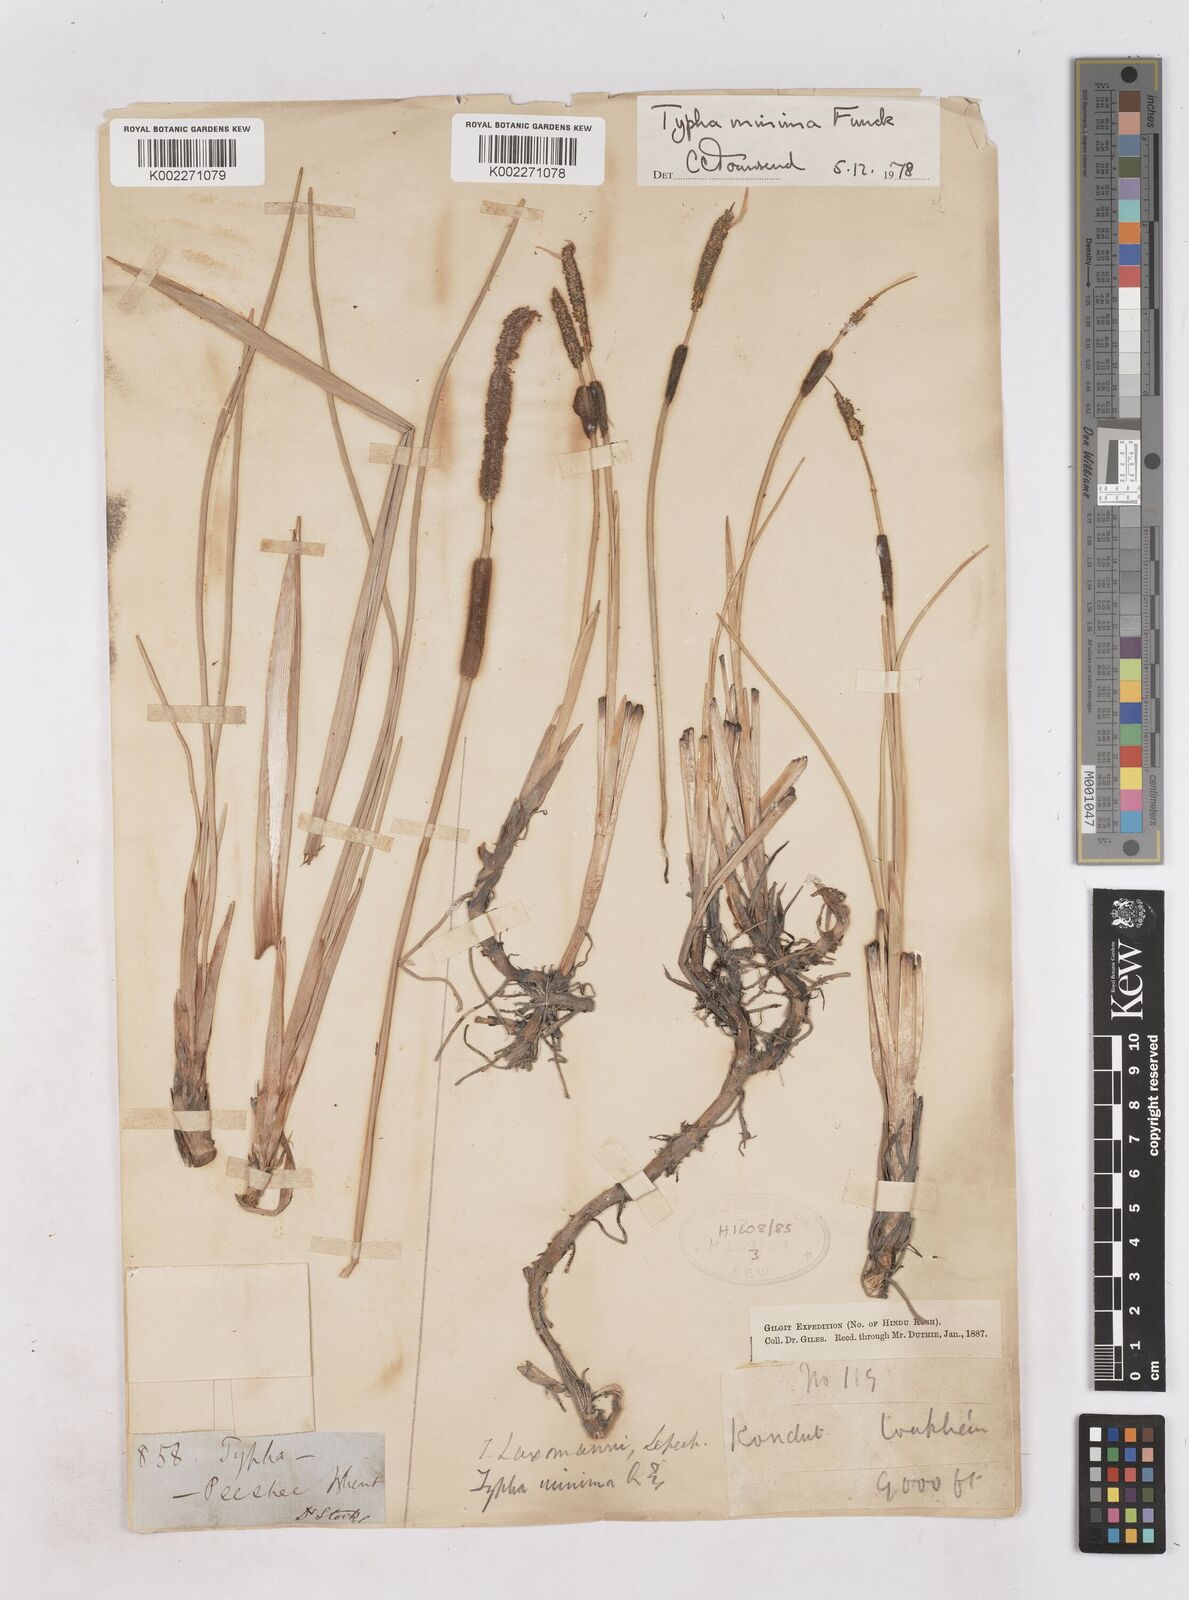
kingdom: Plantae
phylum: Tracheophyta
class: Liliopsida
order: Poales
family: Typhaceae
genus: Typha
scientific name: Typha minima
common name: Dwarf bulrush
